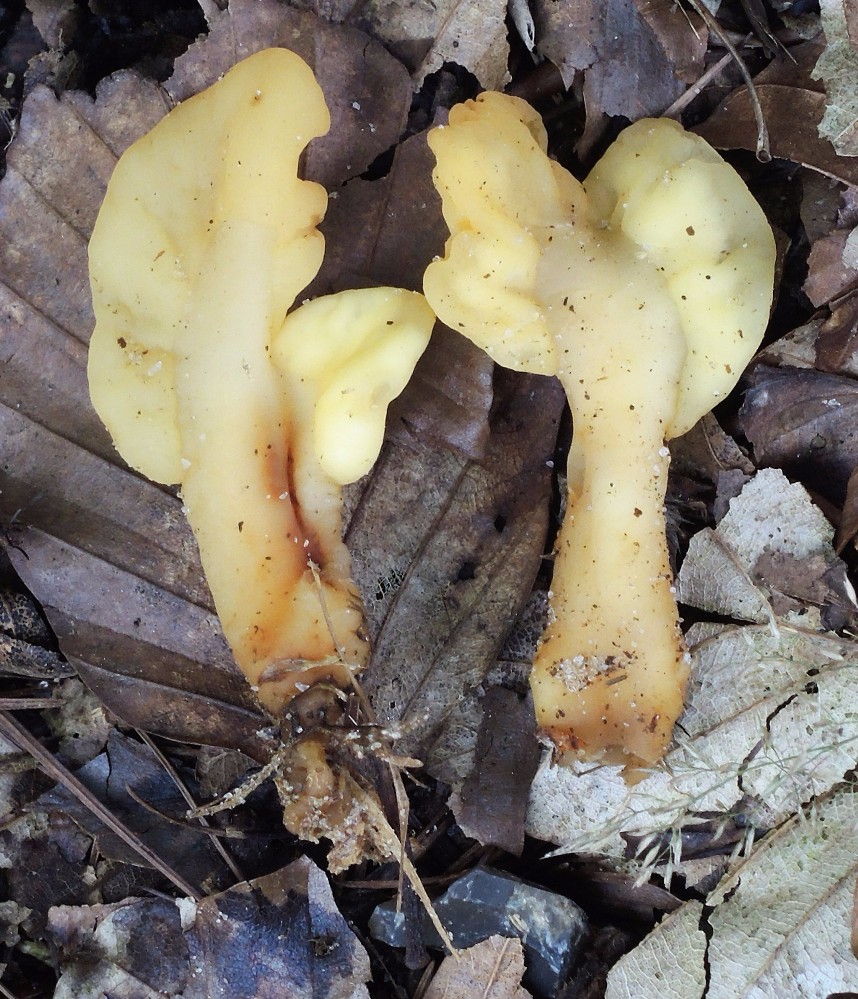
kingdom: Fungi
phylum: Ascomycota
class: Leotiomycetes
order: Rhytismatales
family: Cudoniaceae
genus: Spathularia
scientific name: Spathularia flavida
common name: gul spatelsvamp
